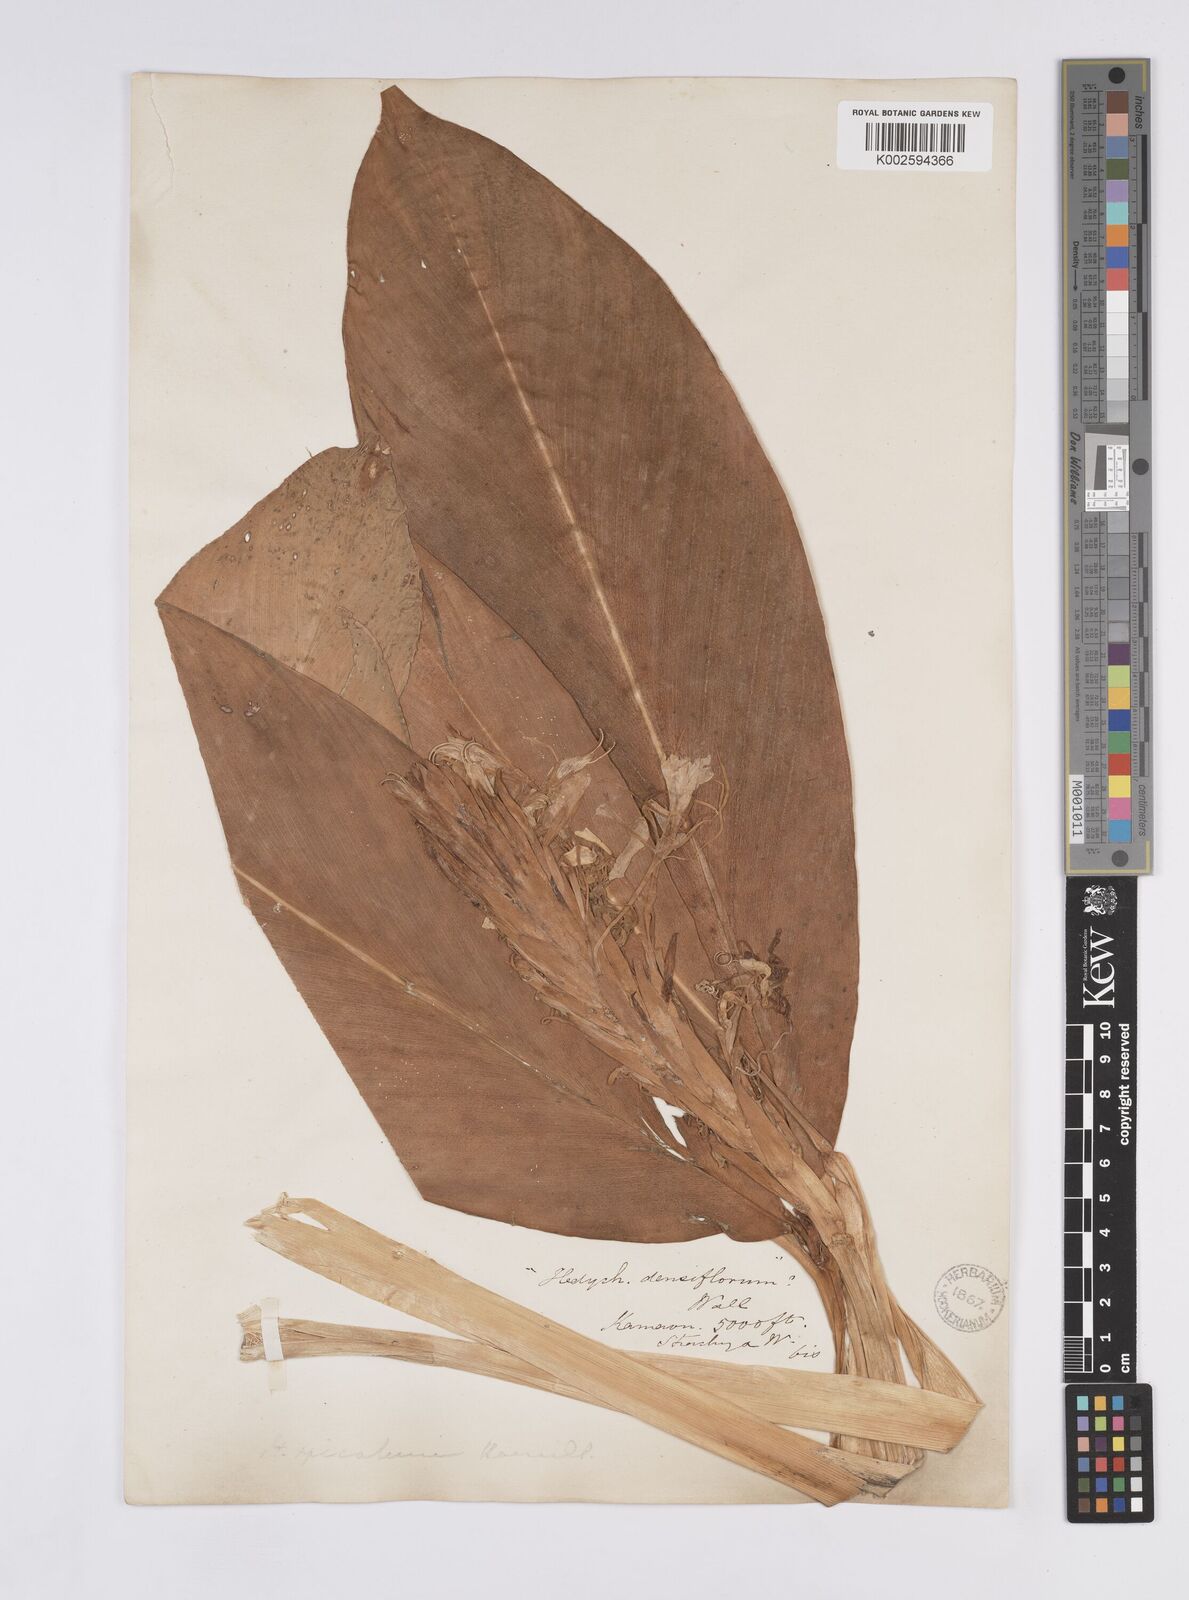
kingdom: Plantae
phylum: Tracheophyta
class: Liliopsida
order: Zingiberales
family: Zingiberaceae
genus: Hedychium
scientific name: Hedychium spicatum
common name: Spiked ginger-lily
